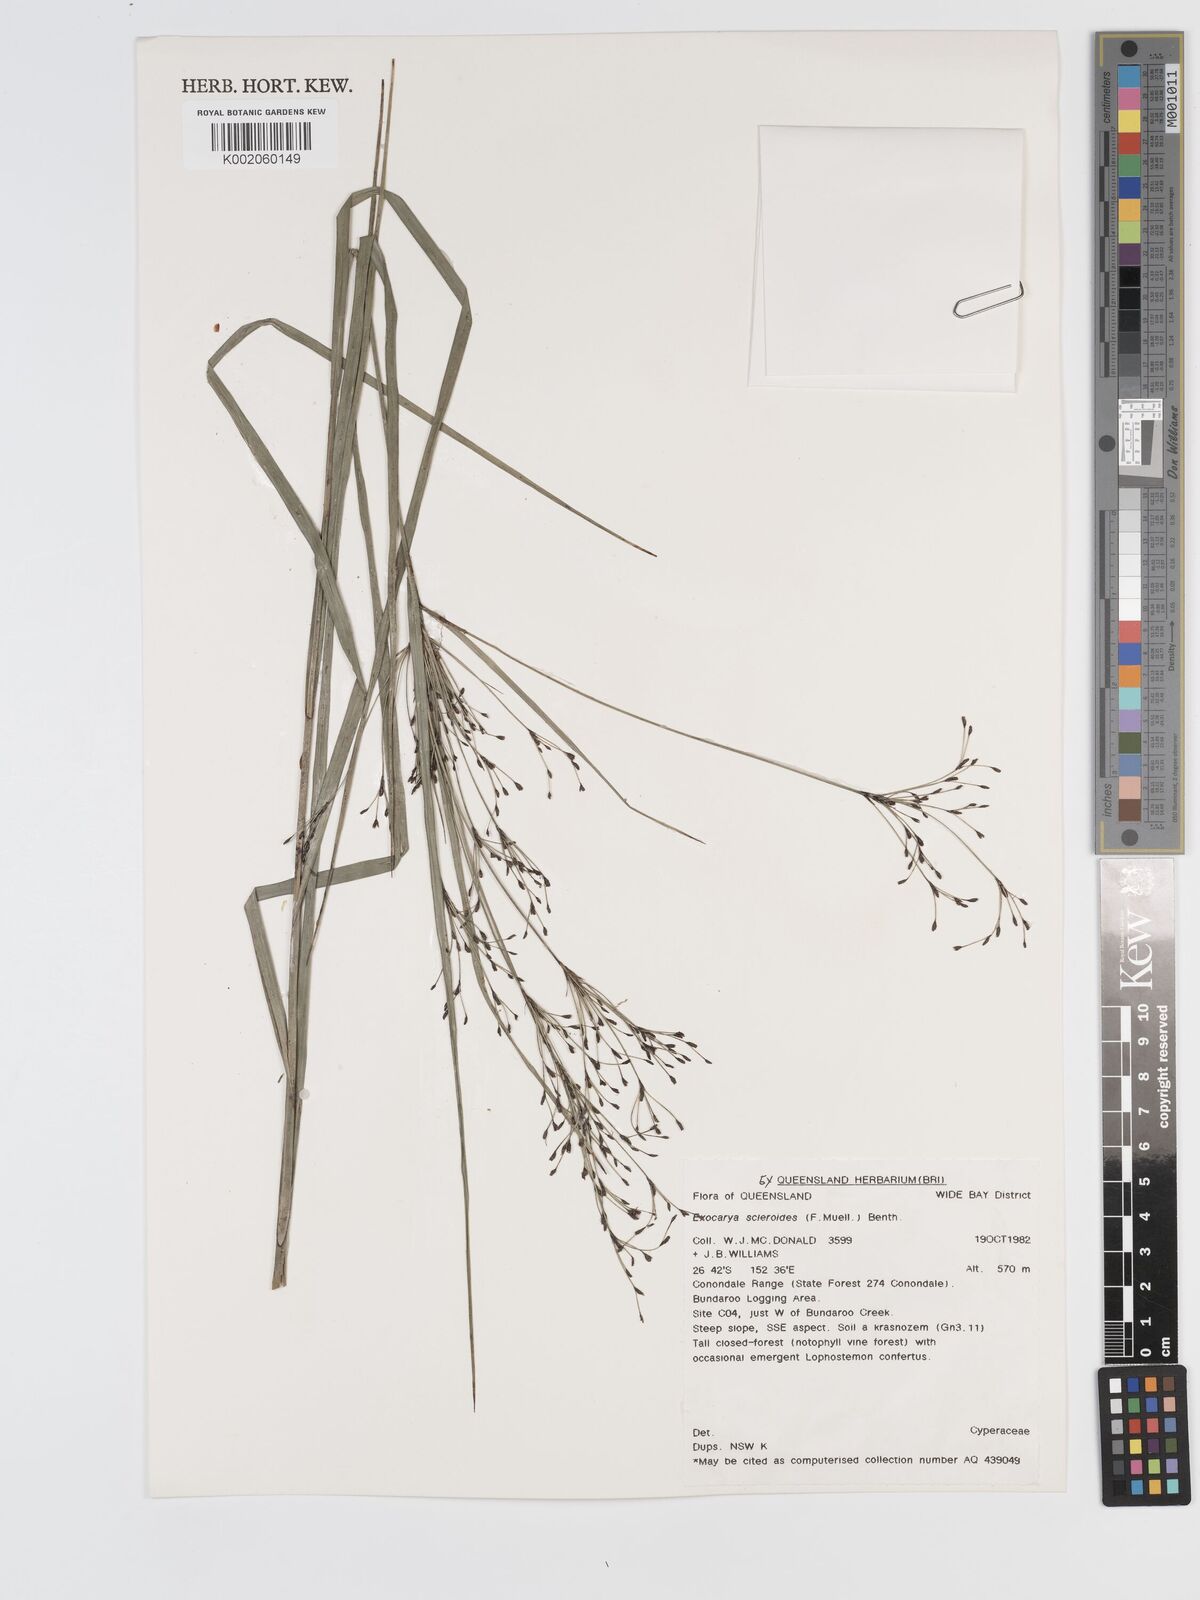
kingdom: Plantae
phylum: Tracheophyta
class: Liliopsida
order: Poales
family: Cyperaceae
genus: Exocarya
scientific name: Exocarya sclerioides
